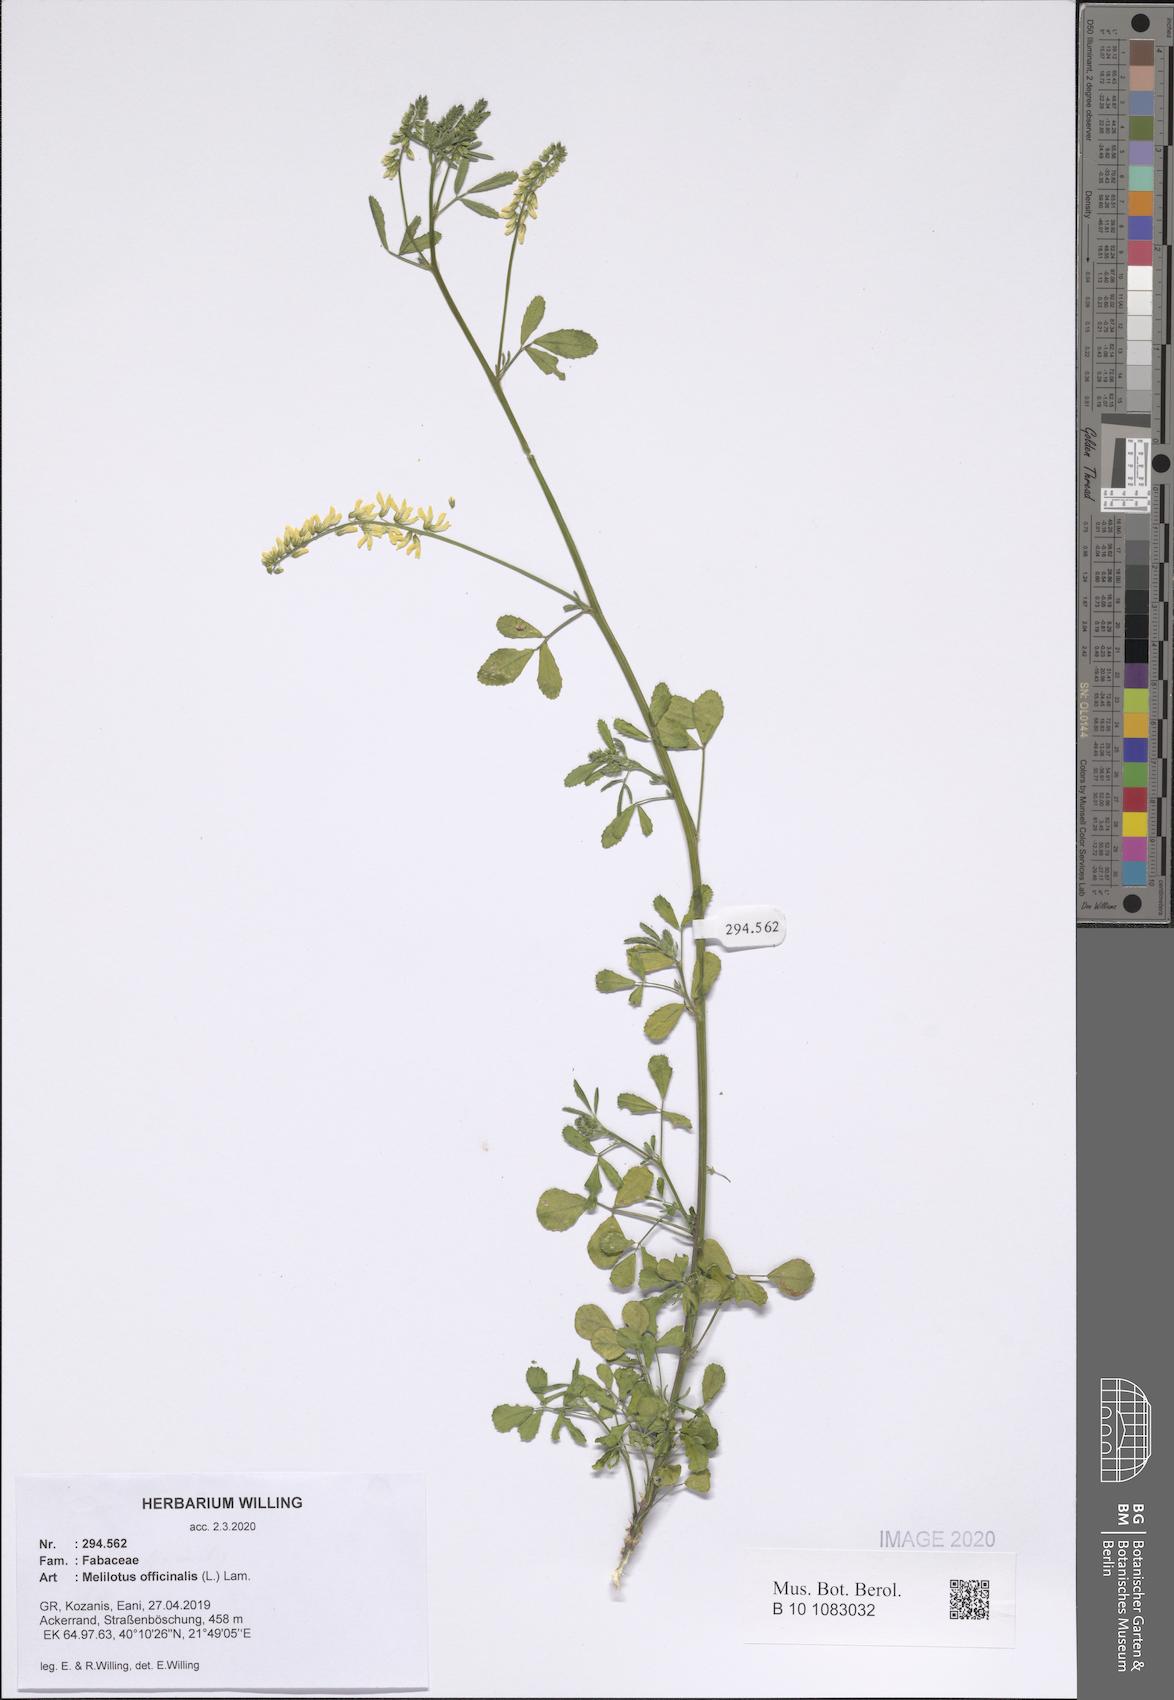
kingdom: Plantae
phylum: Tracheophyta
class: Magnoliopsida
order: Fabales
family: Fabaceae
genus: Melilotus
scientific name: Melilotus officinalis
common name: Sweetclover
